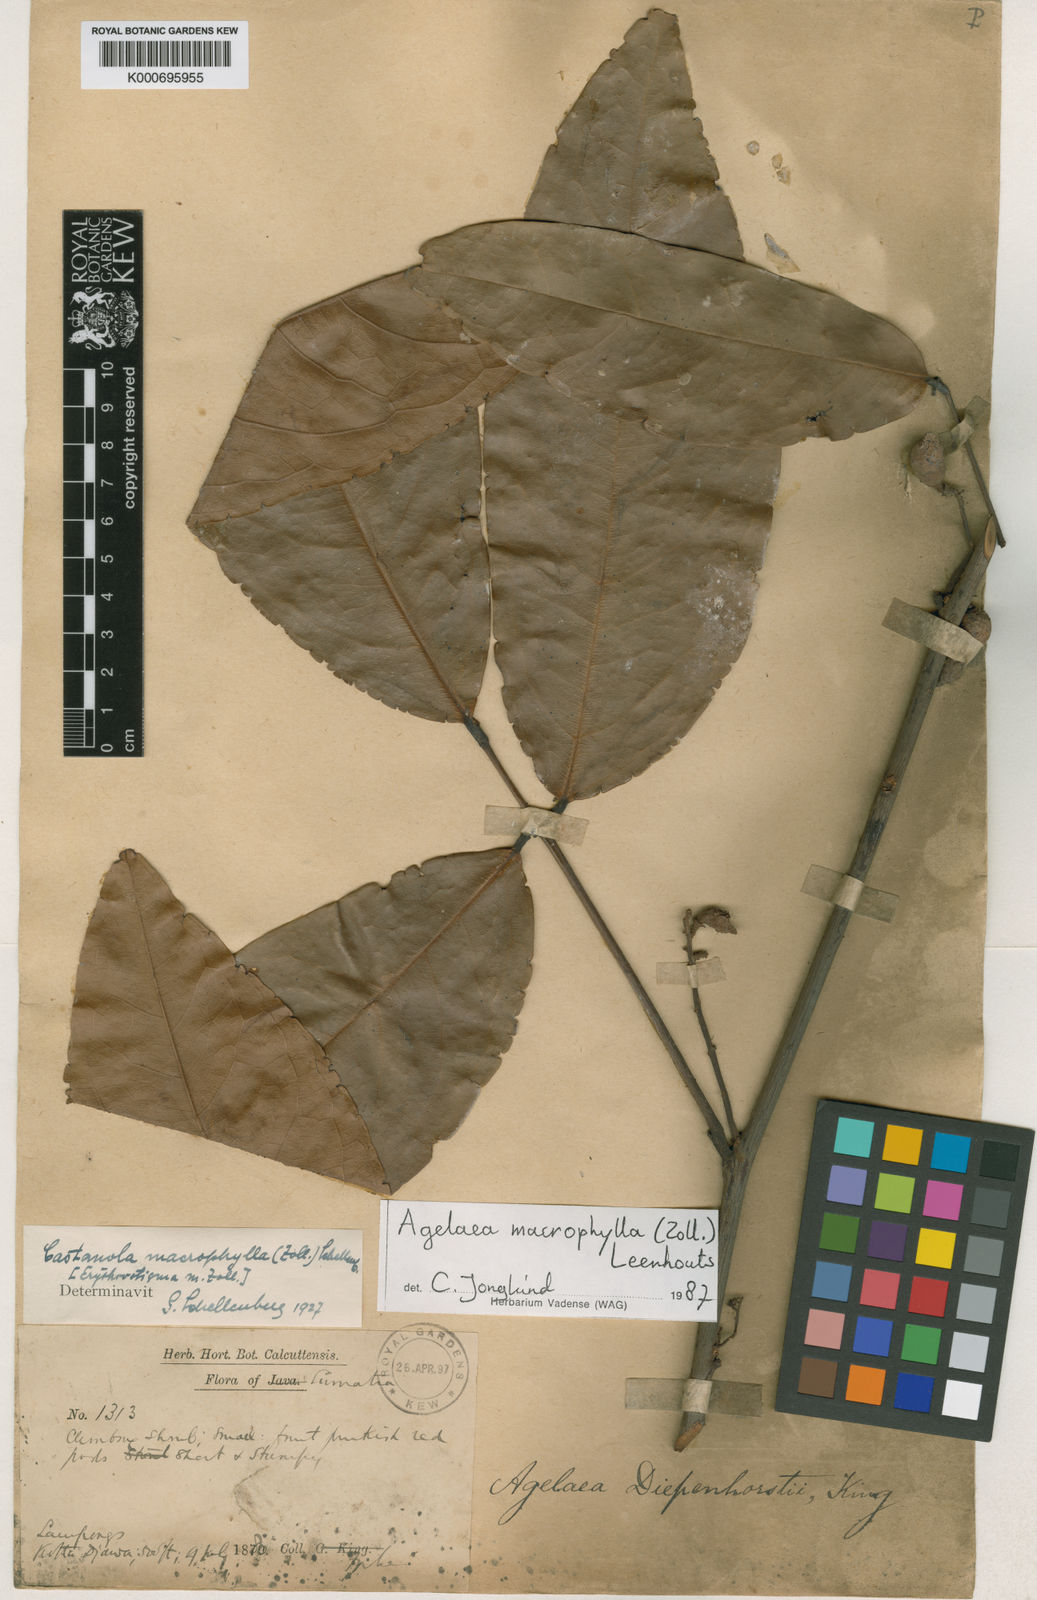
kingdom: Plantae
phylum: Tracheophyta
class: Magnoliopsida
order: Oxalidales
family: Connaraceae
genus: Agelaea
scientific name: Agelaea macrophylla
